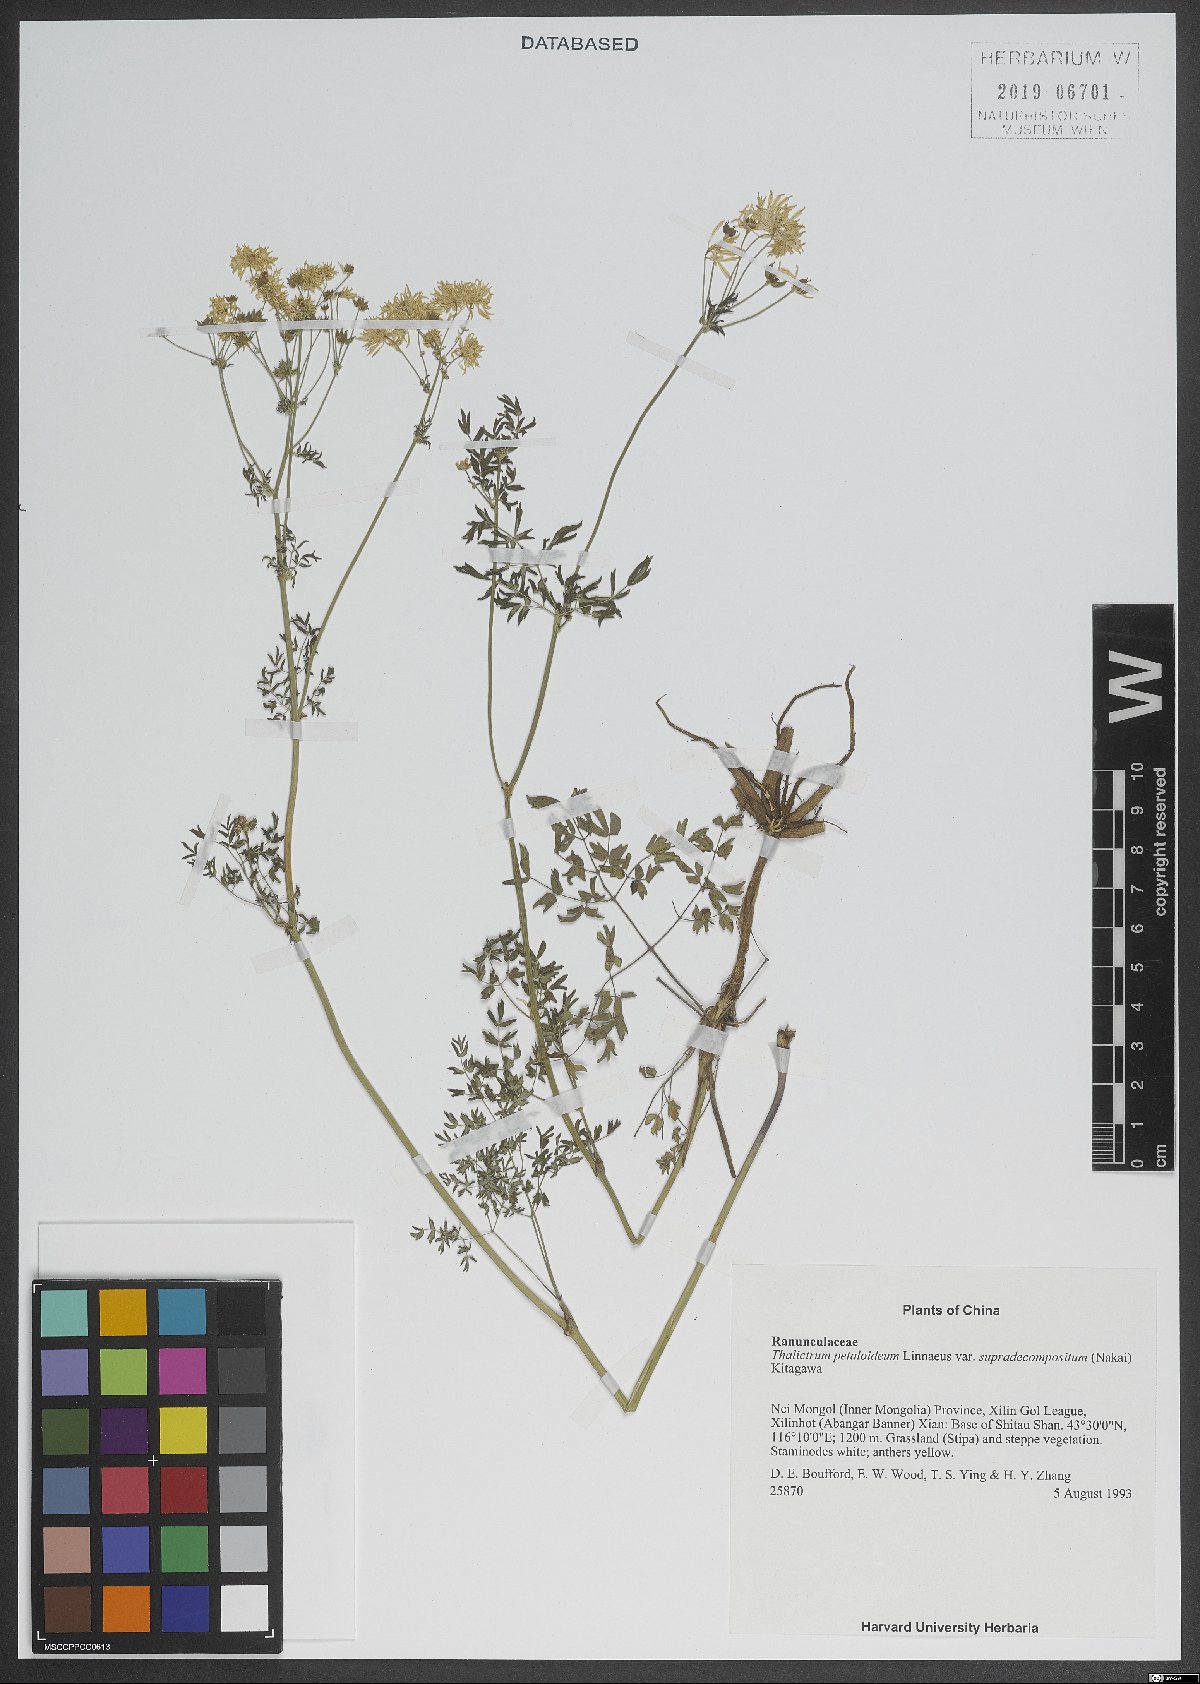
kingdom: Plantae
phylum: Tracheophyta
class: Magnoliopsida
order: Ranunculales
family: Ranunculaceae
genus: Thalictrum
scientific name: Thalictrum petaloideum
